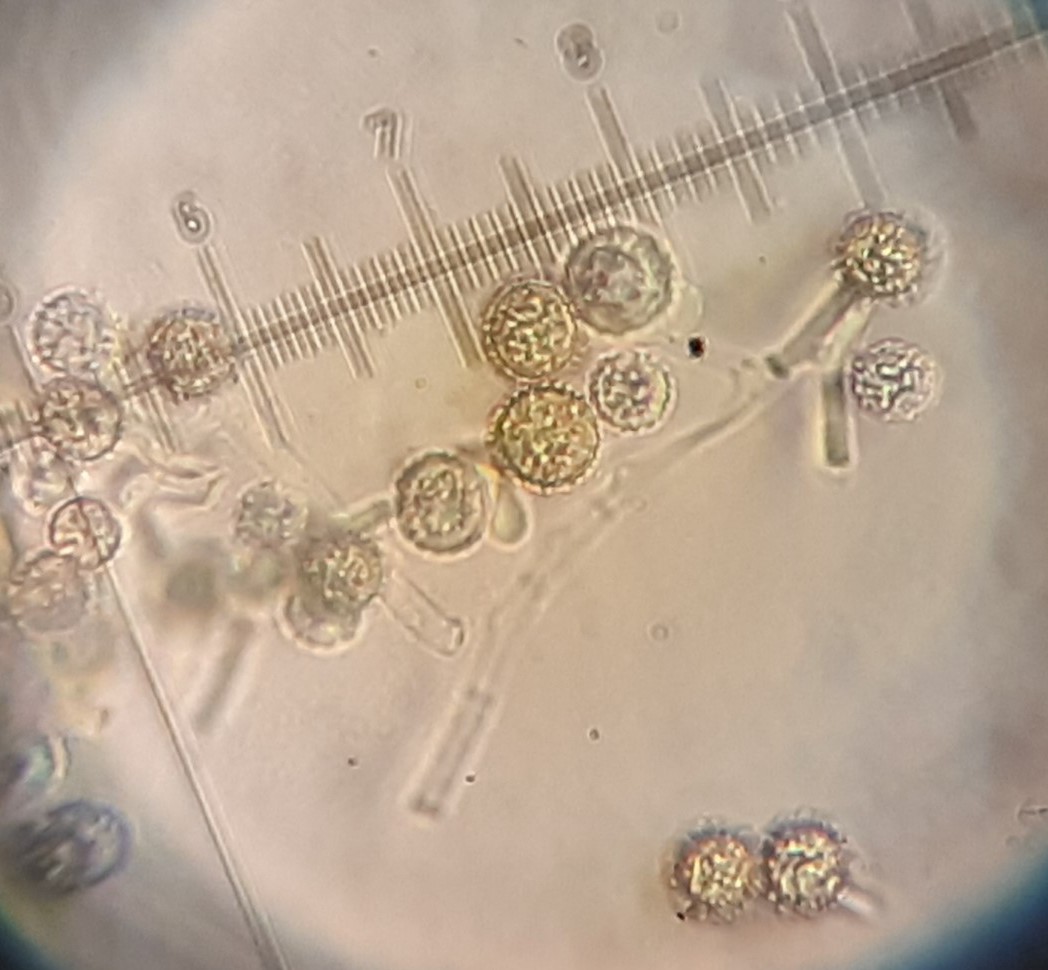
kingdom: Fungi
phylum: Ascomycota
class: Sordariomycetes
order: Hypocreales
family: Hypocreaceae
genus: Hypomyces
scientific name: Hypomyces microspermus
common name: dværgrørhat-snylteskorpe
